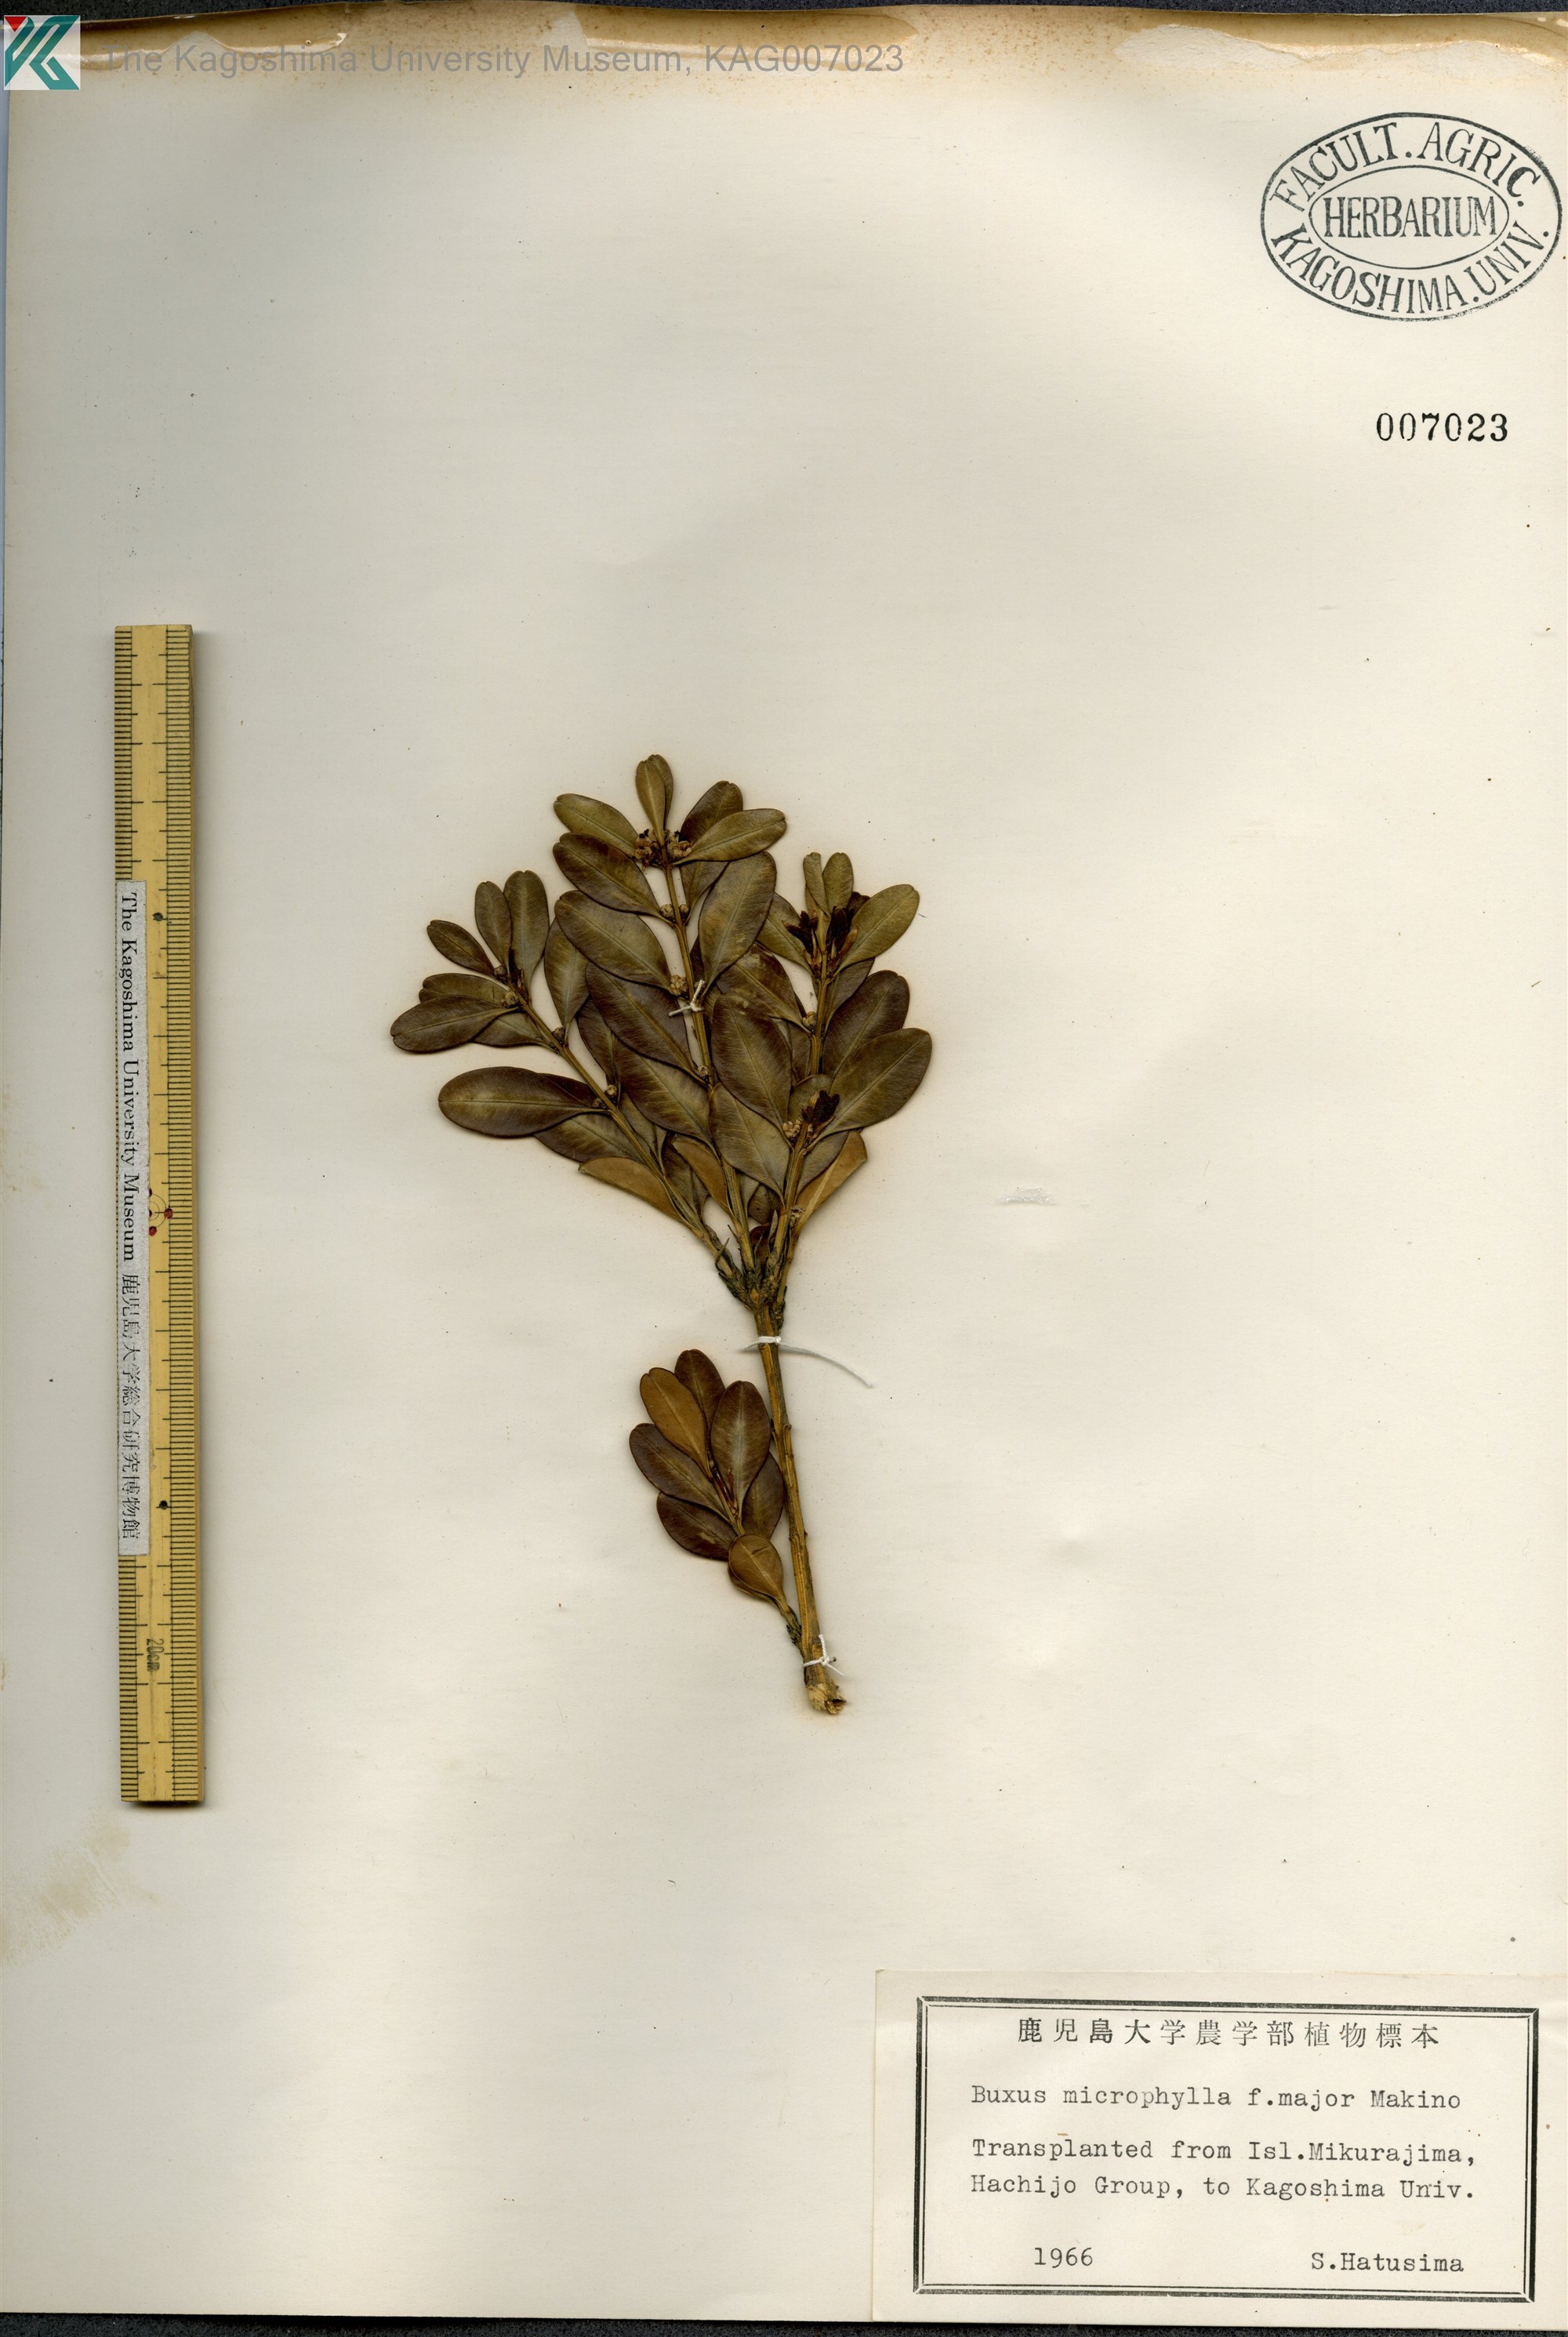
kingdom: Plantae
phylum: Tracheophyta
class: Magnoliopsida
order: Buxales
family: Buxaceae
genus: Buxus
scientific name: Buxus microphylla
